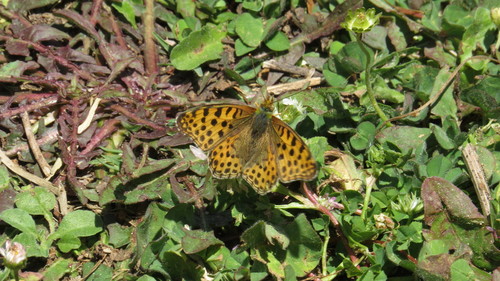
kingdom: Animalia
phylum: Arthropoda
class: Insecta
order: Lepidoptera
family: Nymphalidae
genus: Issoria
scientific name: Issoria lathonia
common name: Queen of spain fritillary
